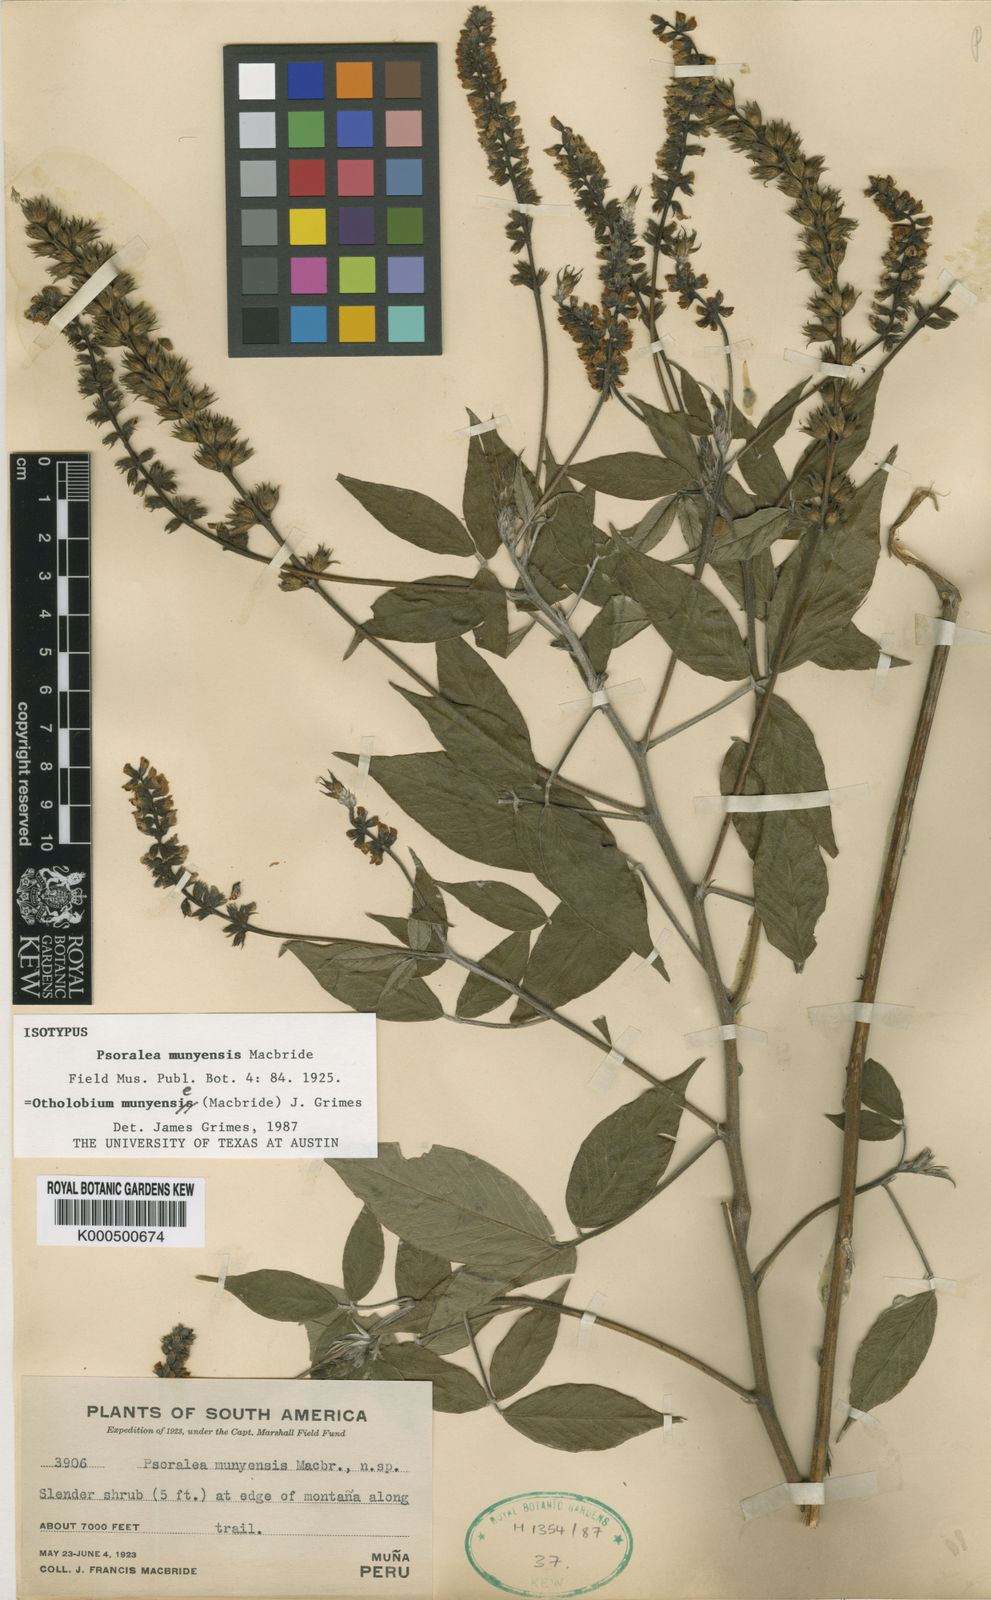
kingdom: Plantae
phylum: Tracheophyta
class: Magnoliopsida
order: Fabales
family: Fabaceae
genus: Psoralea
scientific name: Psoralea Otholobium munyense
